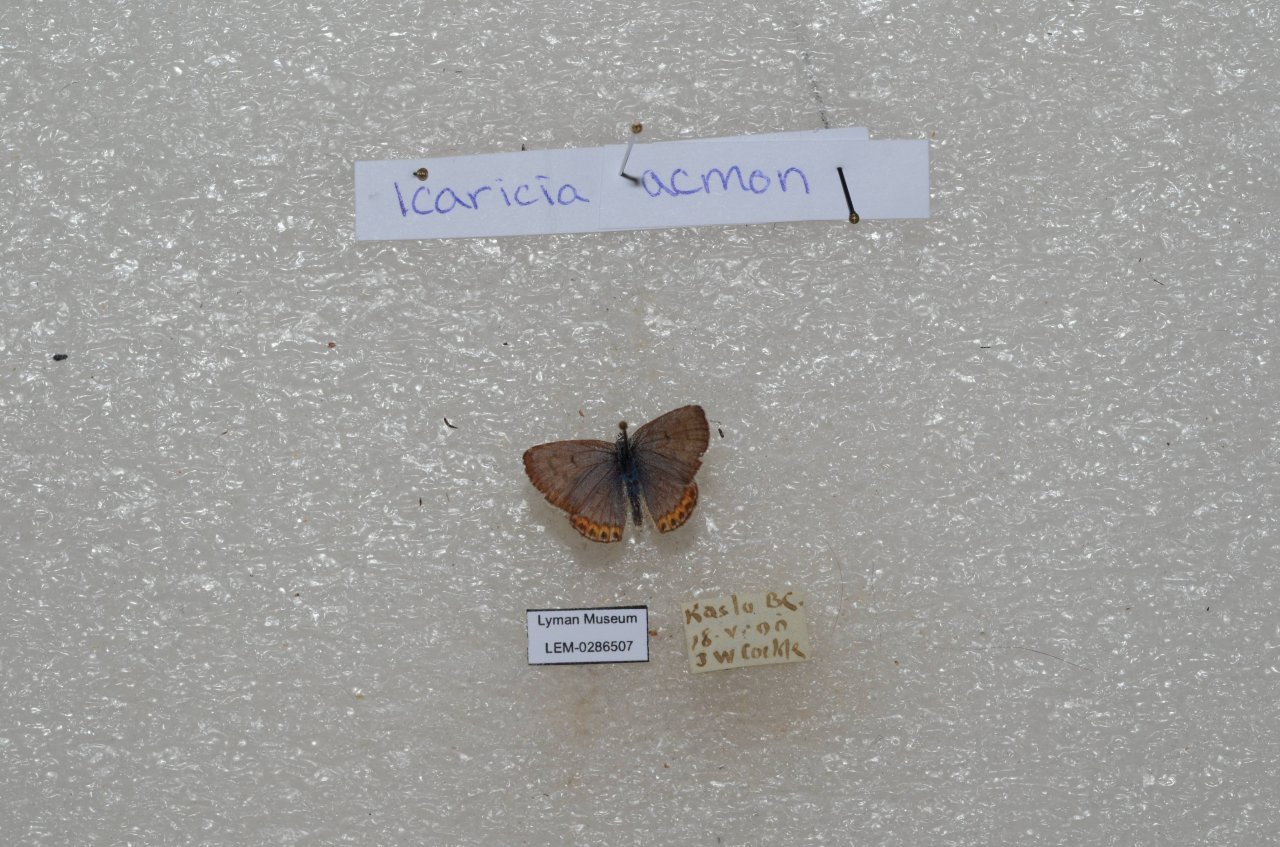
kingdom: Animalia
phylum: Arthropoda
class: Insecta
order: Lepidoptera
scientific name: Lepidoptera
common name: Butterflies
